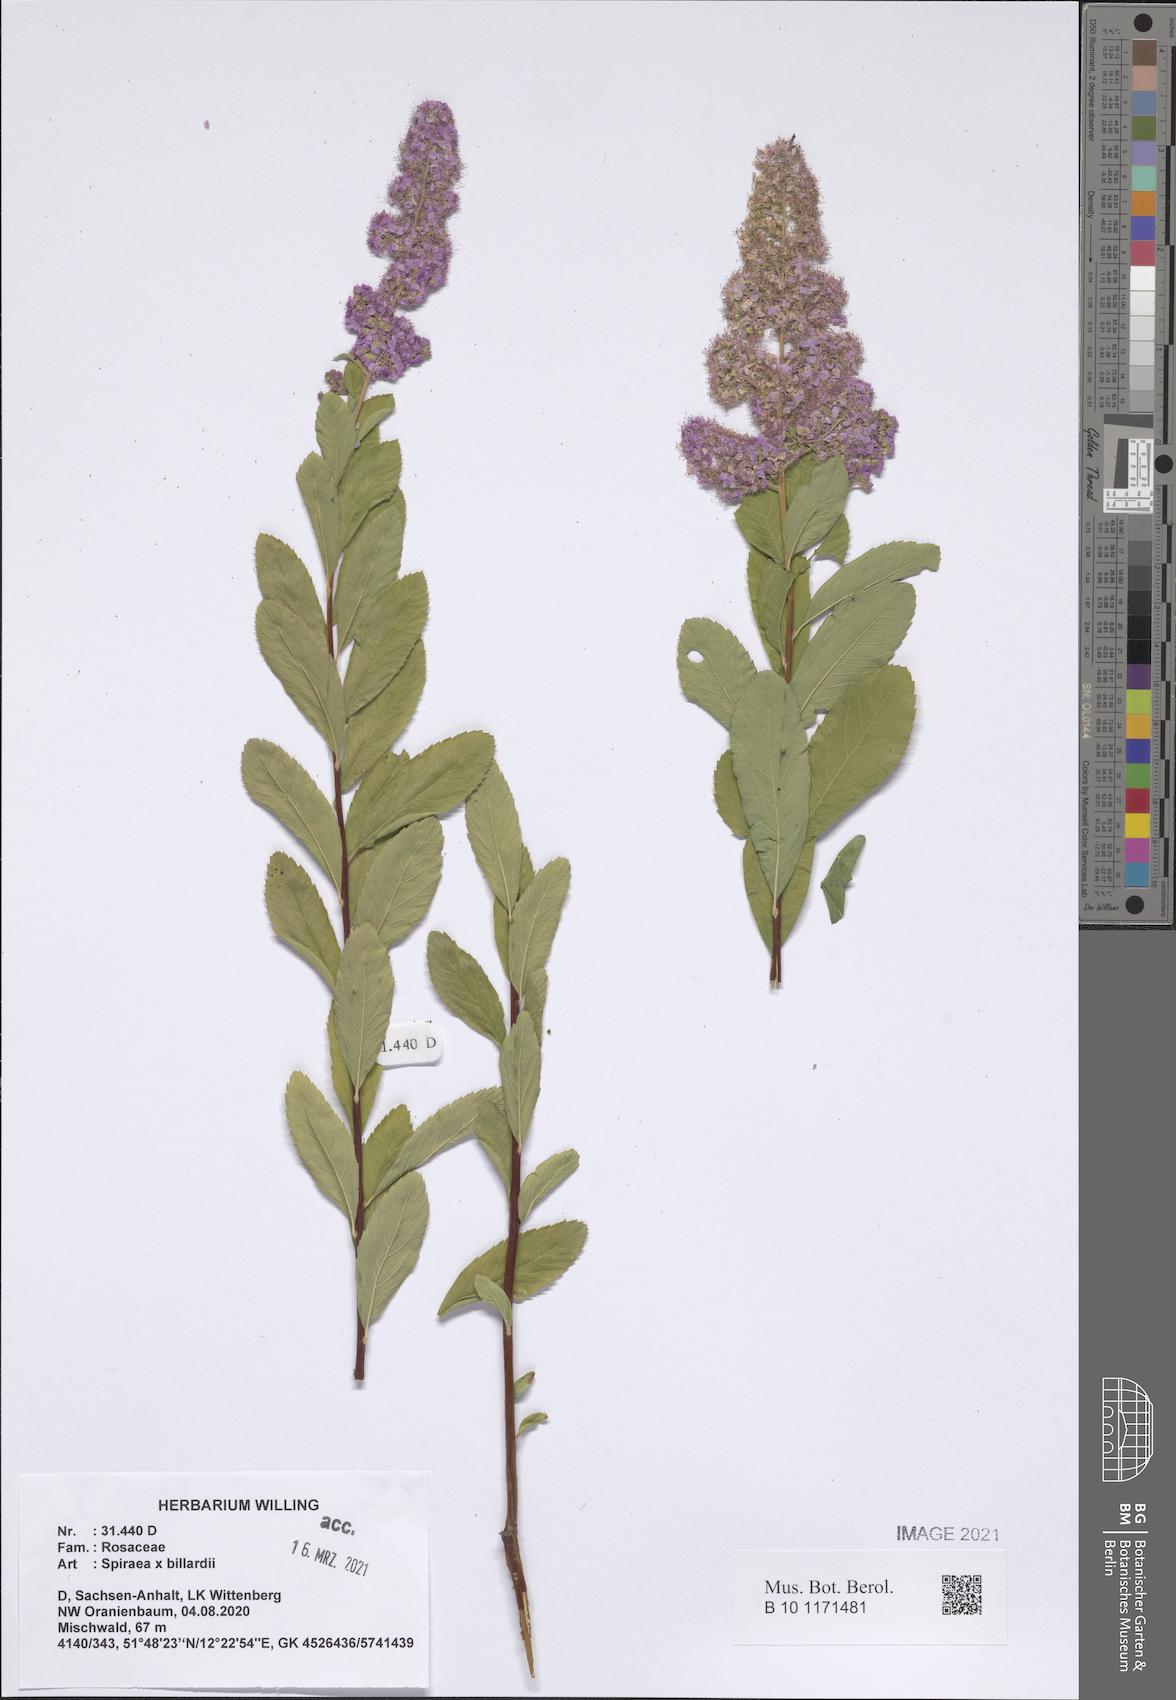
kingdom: Plantae
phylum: Tracheophyta
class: Magnoliopsida
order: Rosales
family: Rosaceae
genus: Spiraea
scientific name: Spiraea billardii
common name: Billard's bridewort
